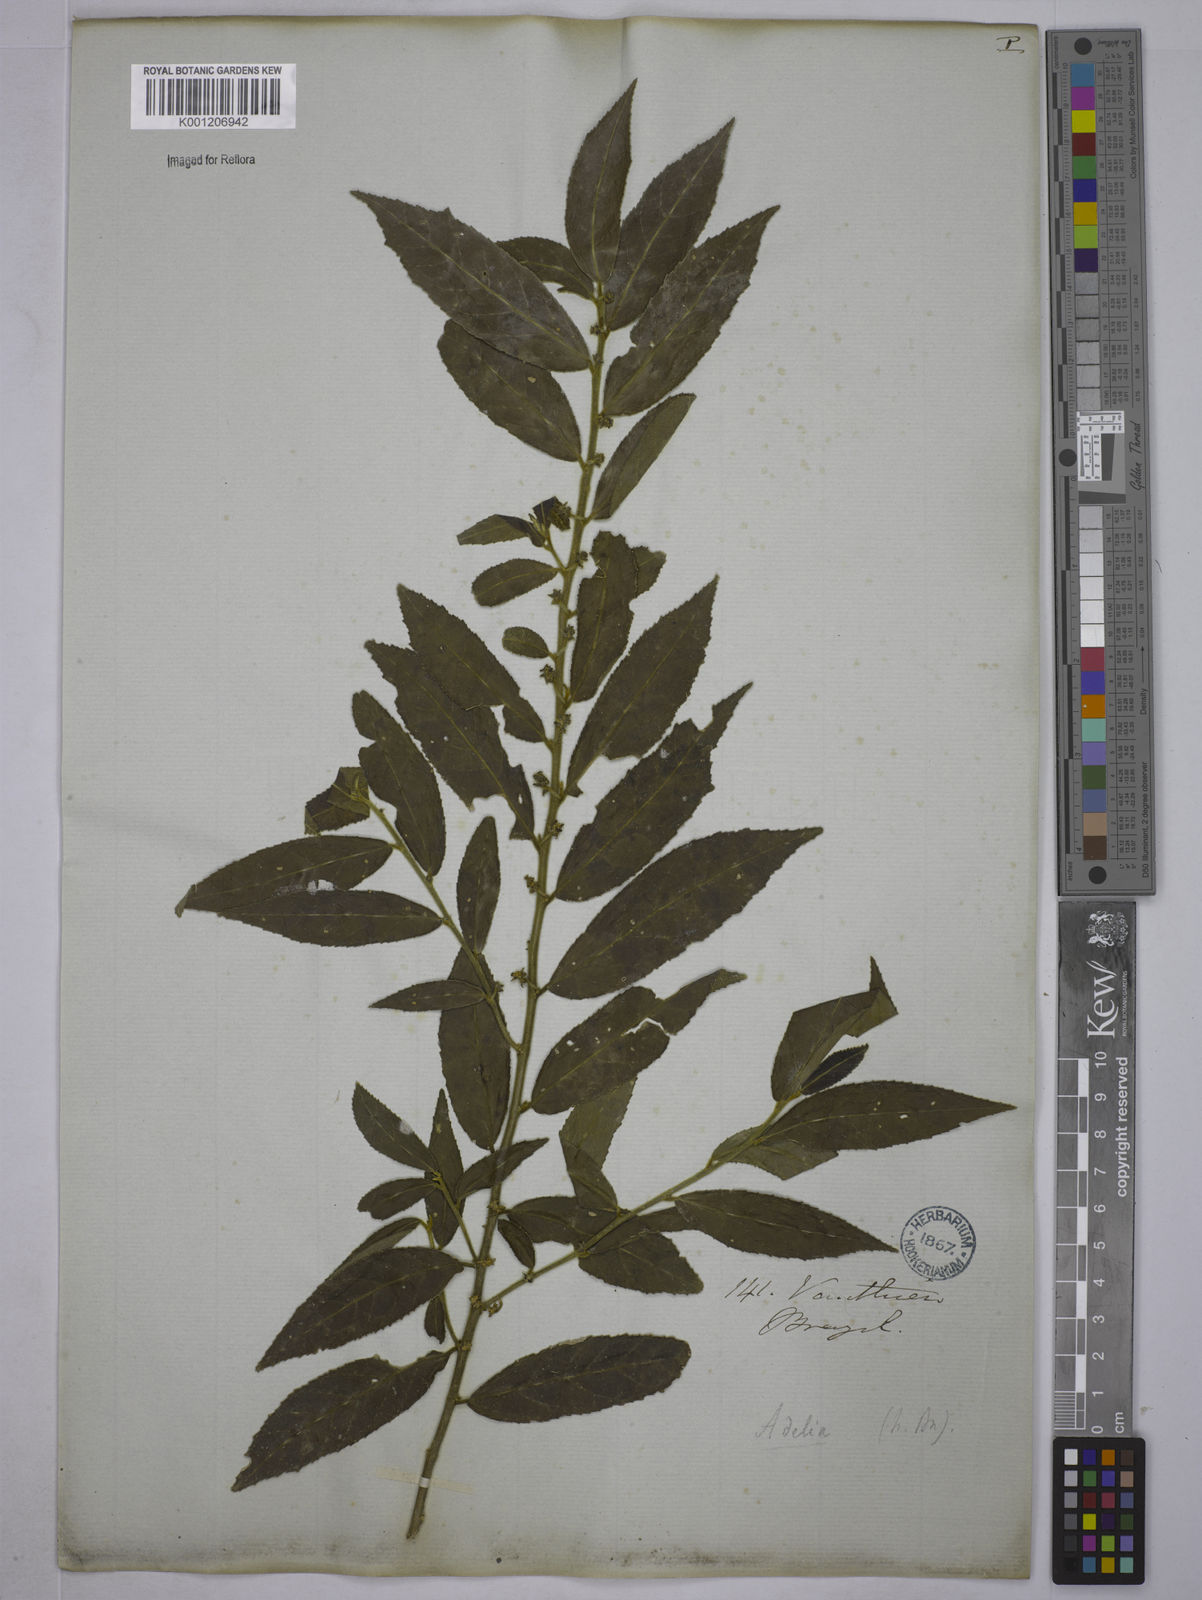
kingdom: Plantae
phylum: Tracheophyta
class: Magnoliopsida
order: Malpighiales
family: Euphorbiaceae
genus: Bernardia
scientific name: Bernardia celastrinea
